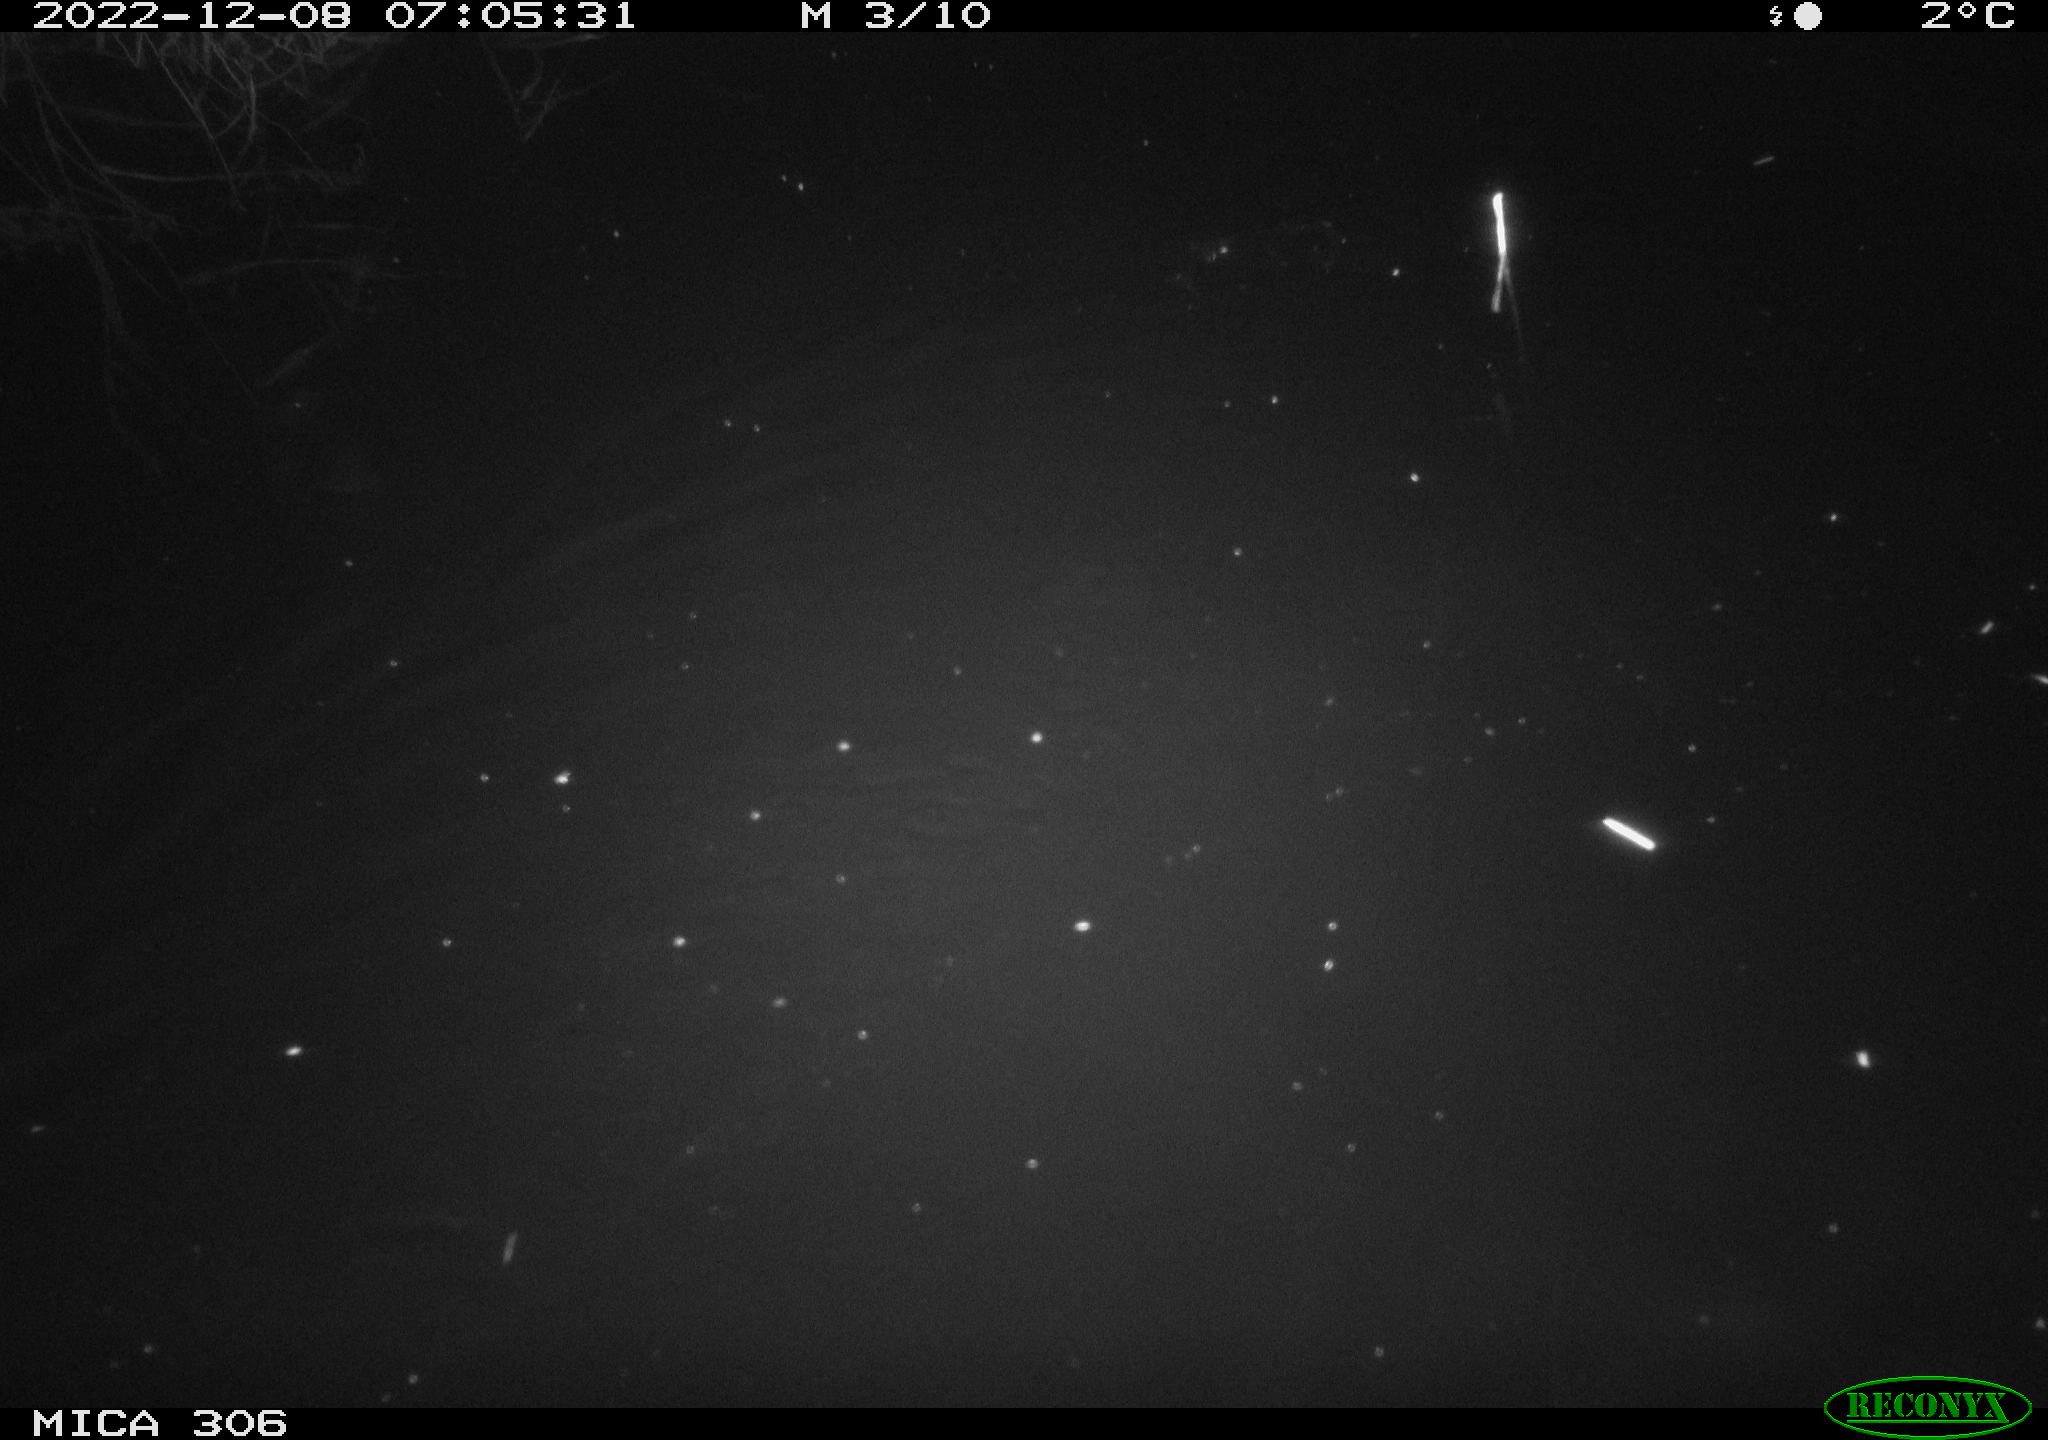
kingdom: Animalia
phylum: Chordata
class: Mammalia
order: Rodentia
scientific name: Rodentia
